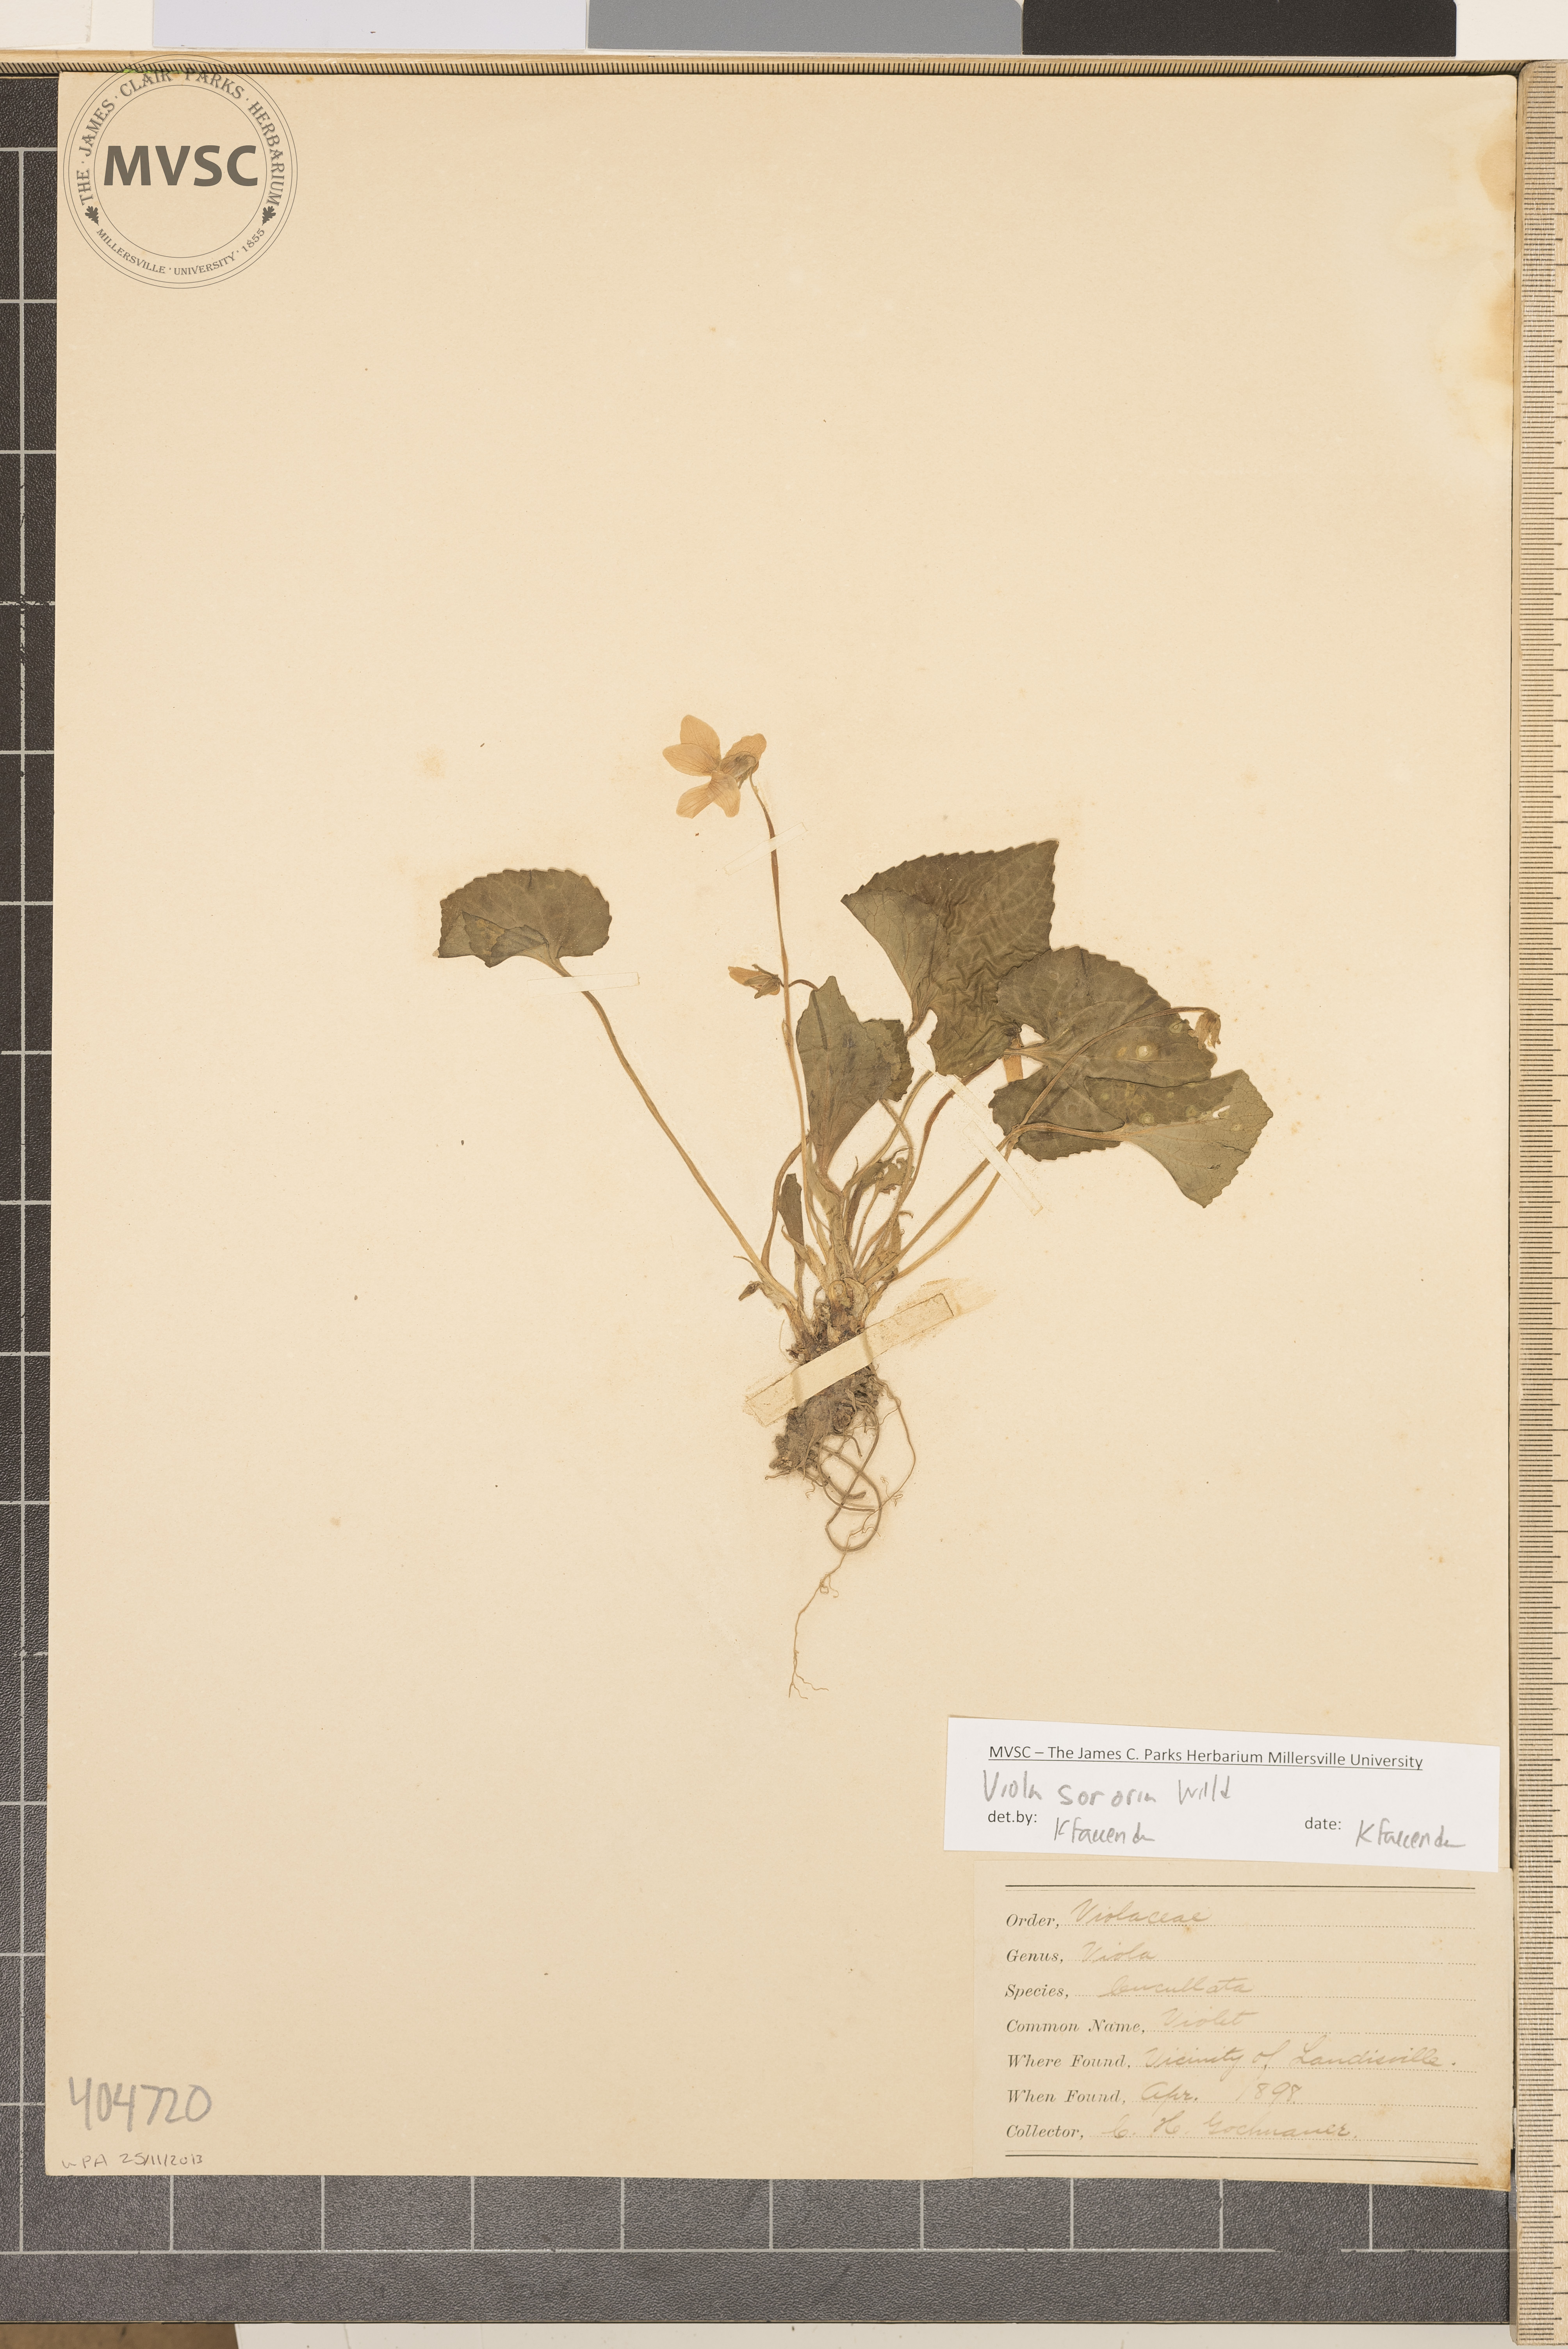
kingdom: Plantae
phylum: Tracheophyta
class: Magnoliopsida
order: Malpighiales
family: Violaceae
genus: Viola
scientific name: Viola sororia
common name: Violet
